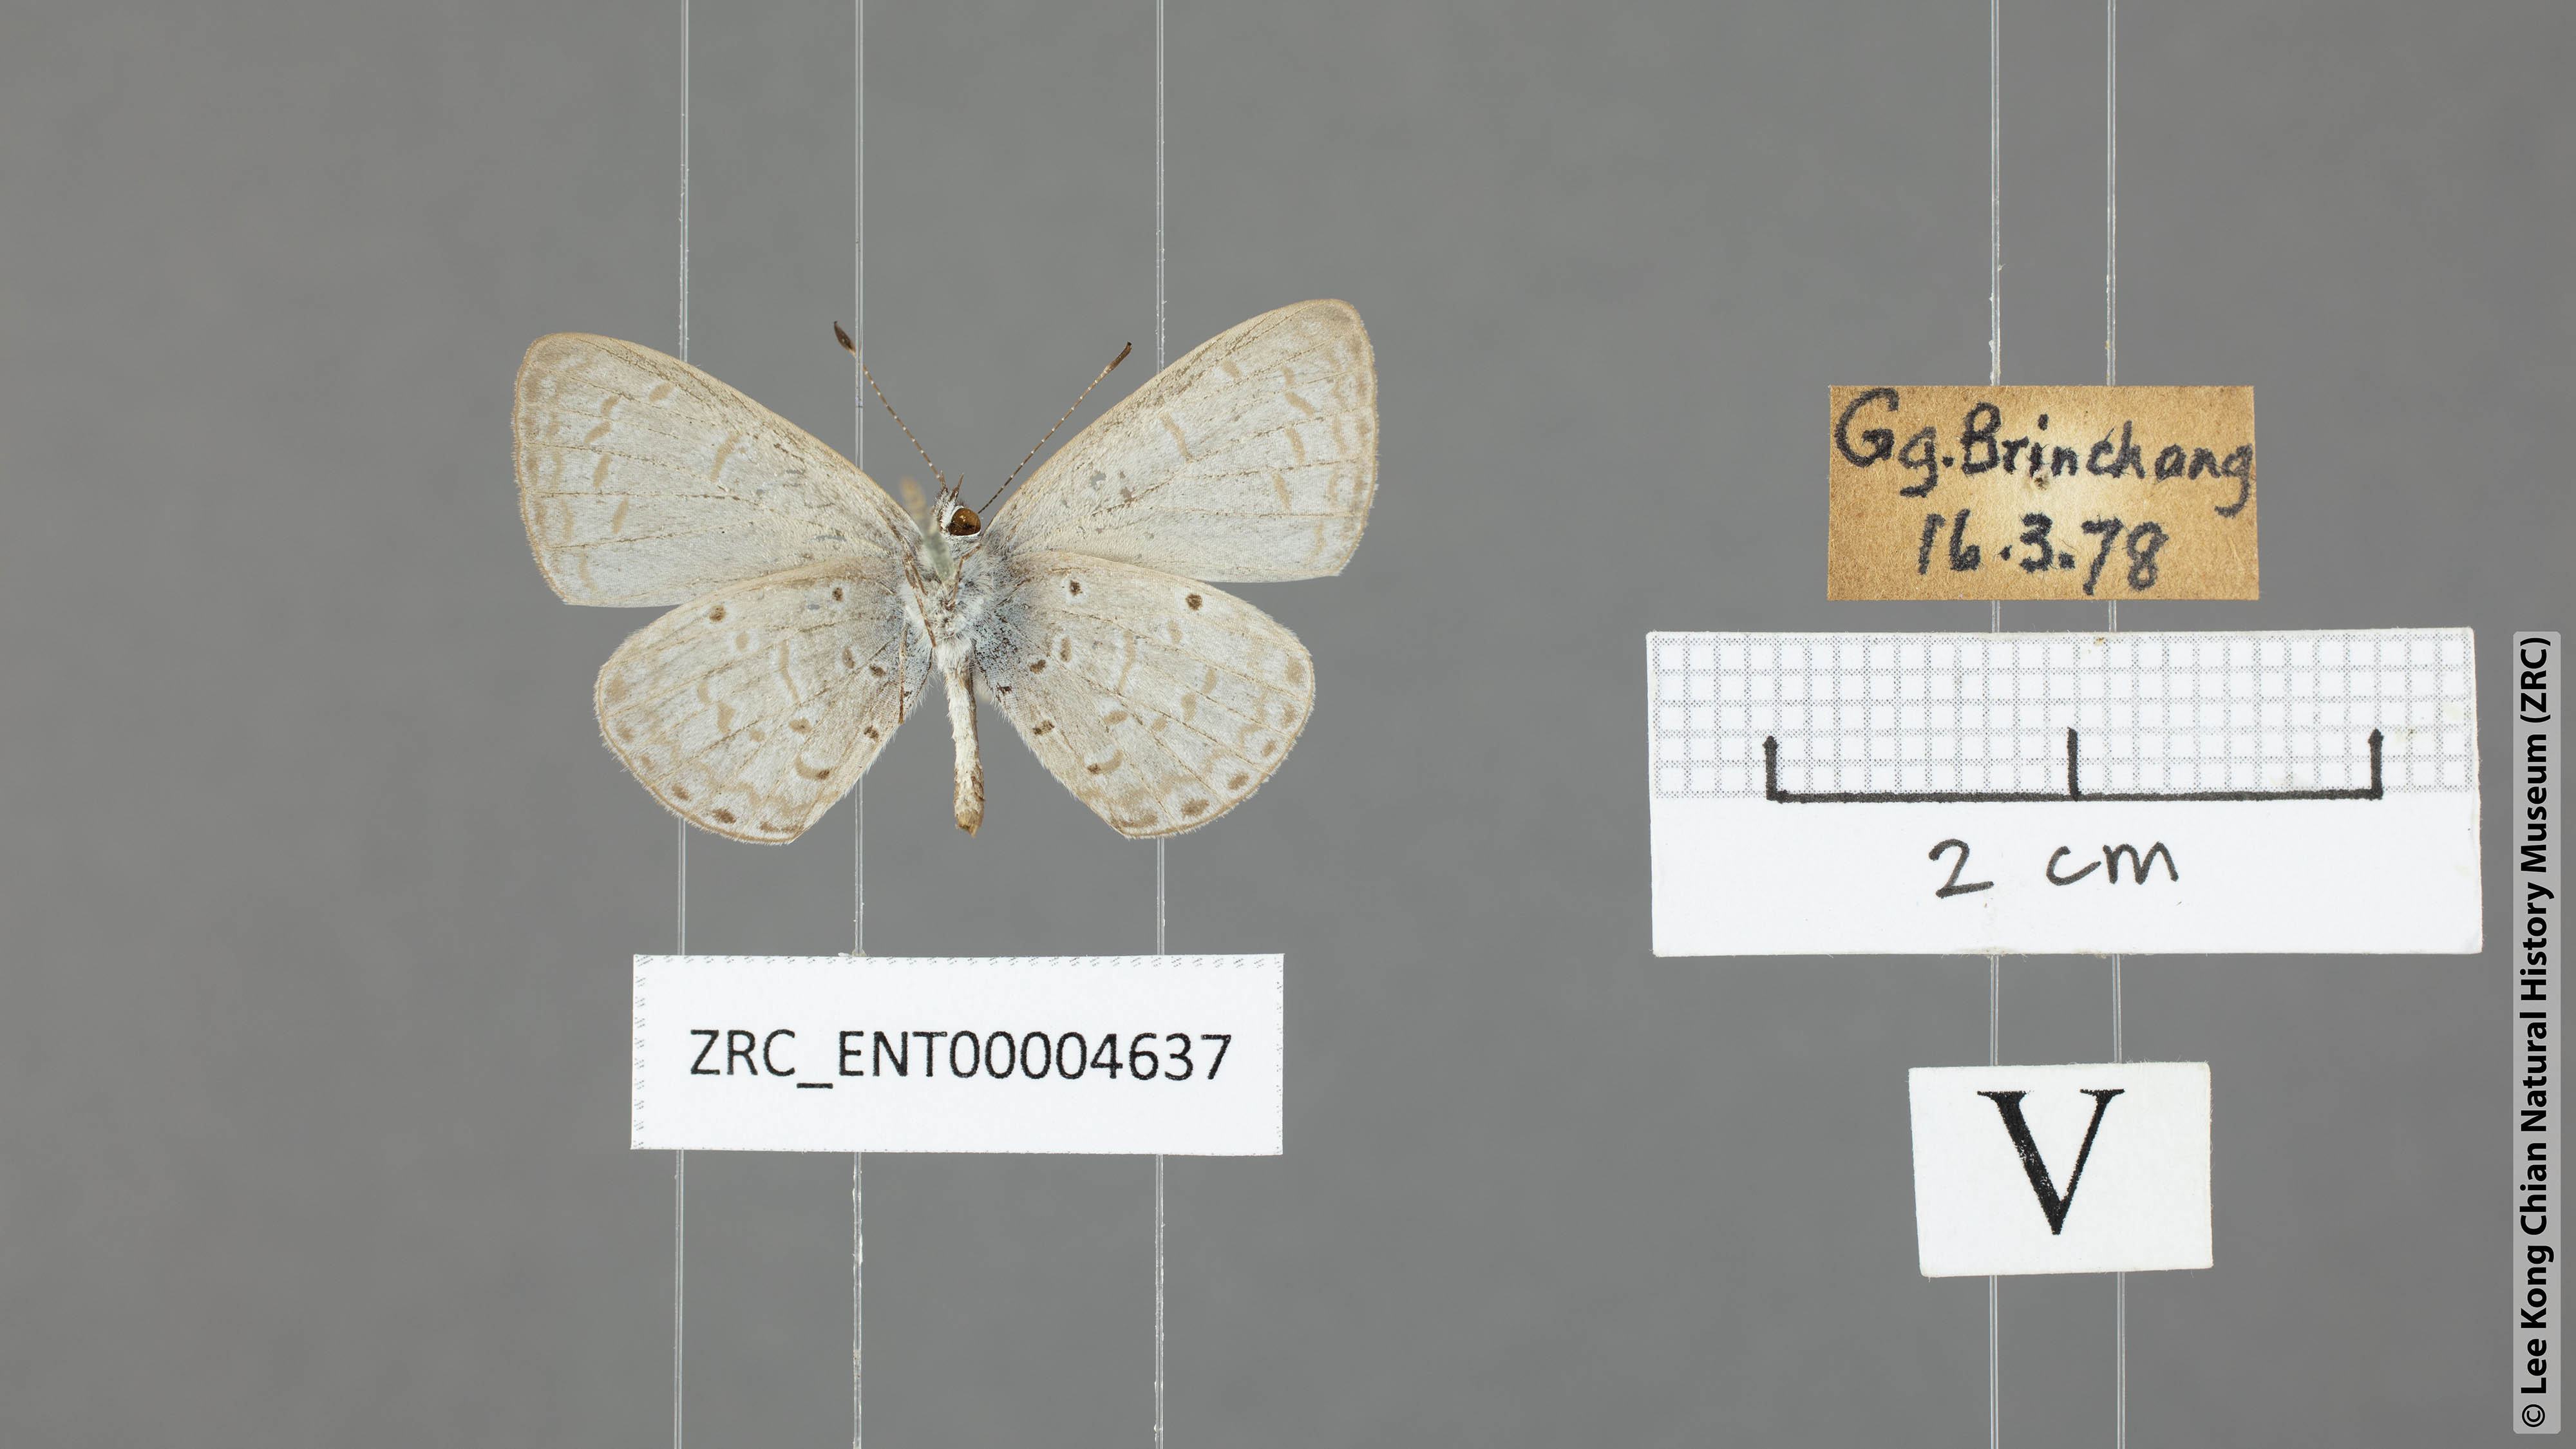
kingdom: Animalia
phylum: Arthropoda
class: Insecta
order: Lepidoptera
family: Lycaenidae
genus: Udara
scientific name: Udara
